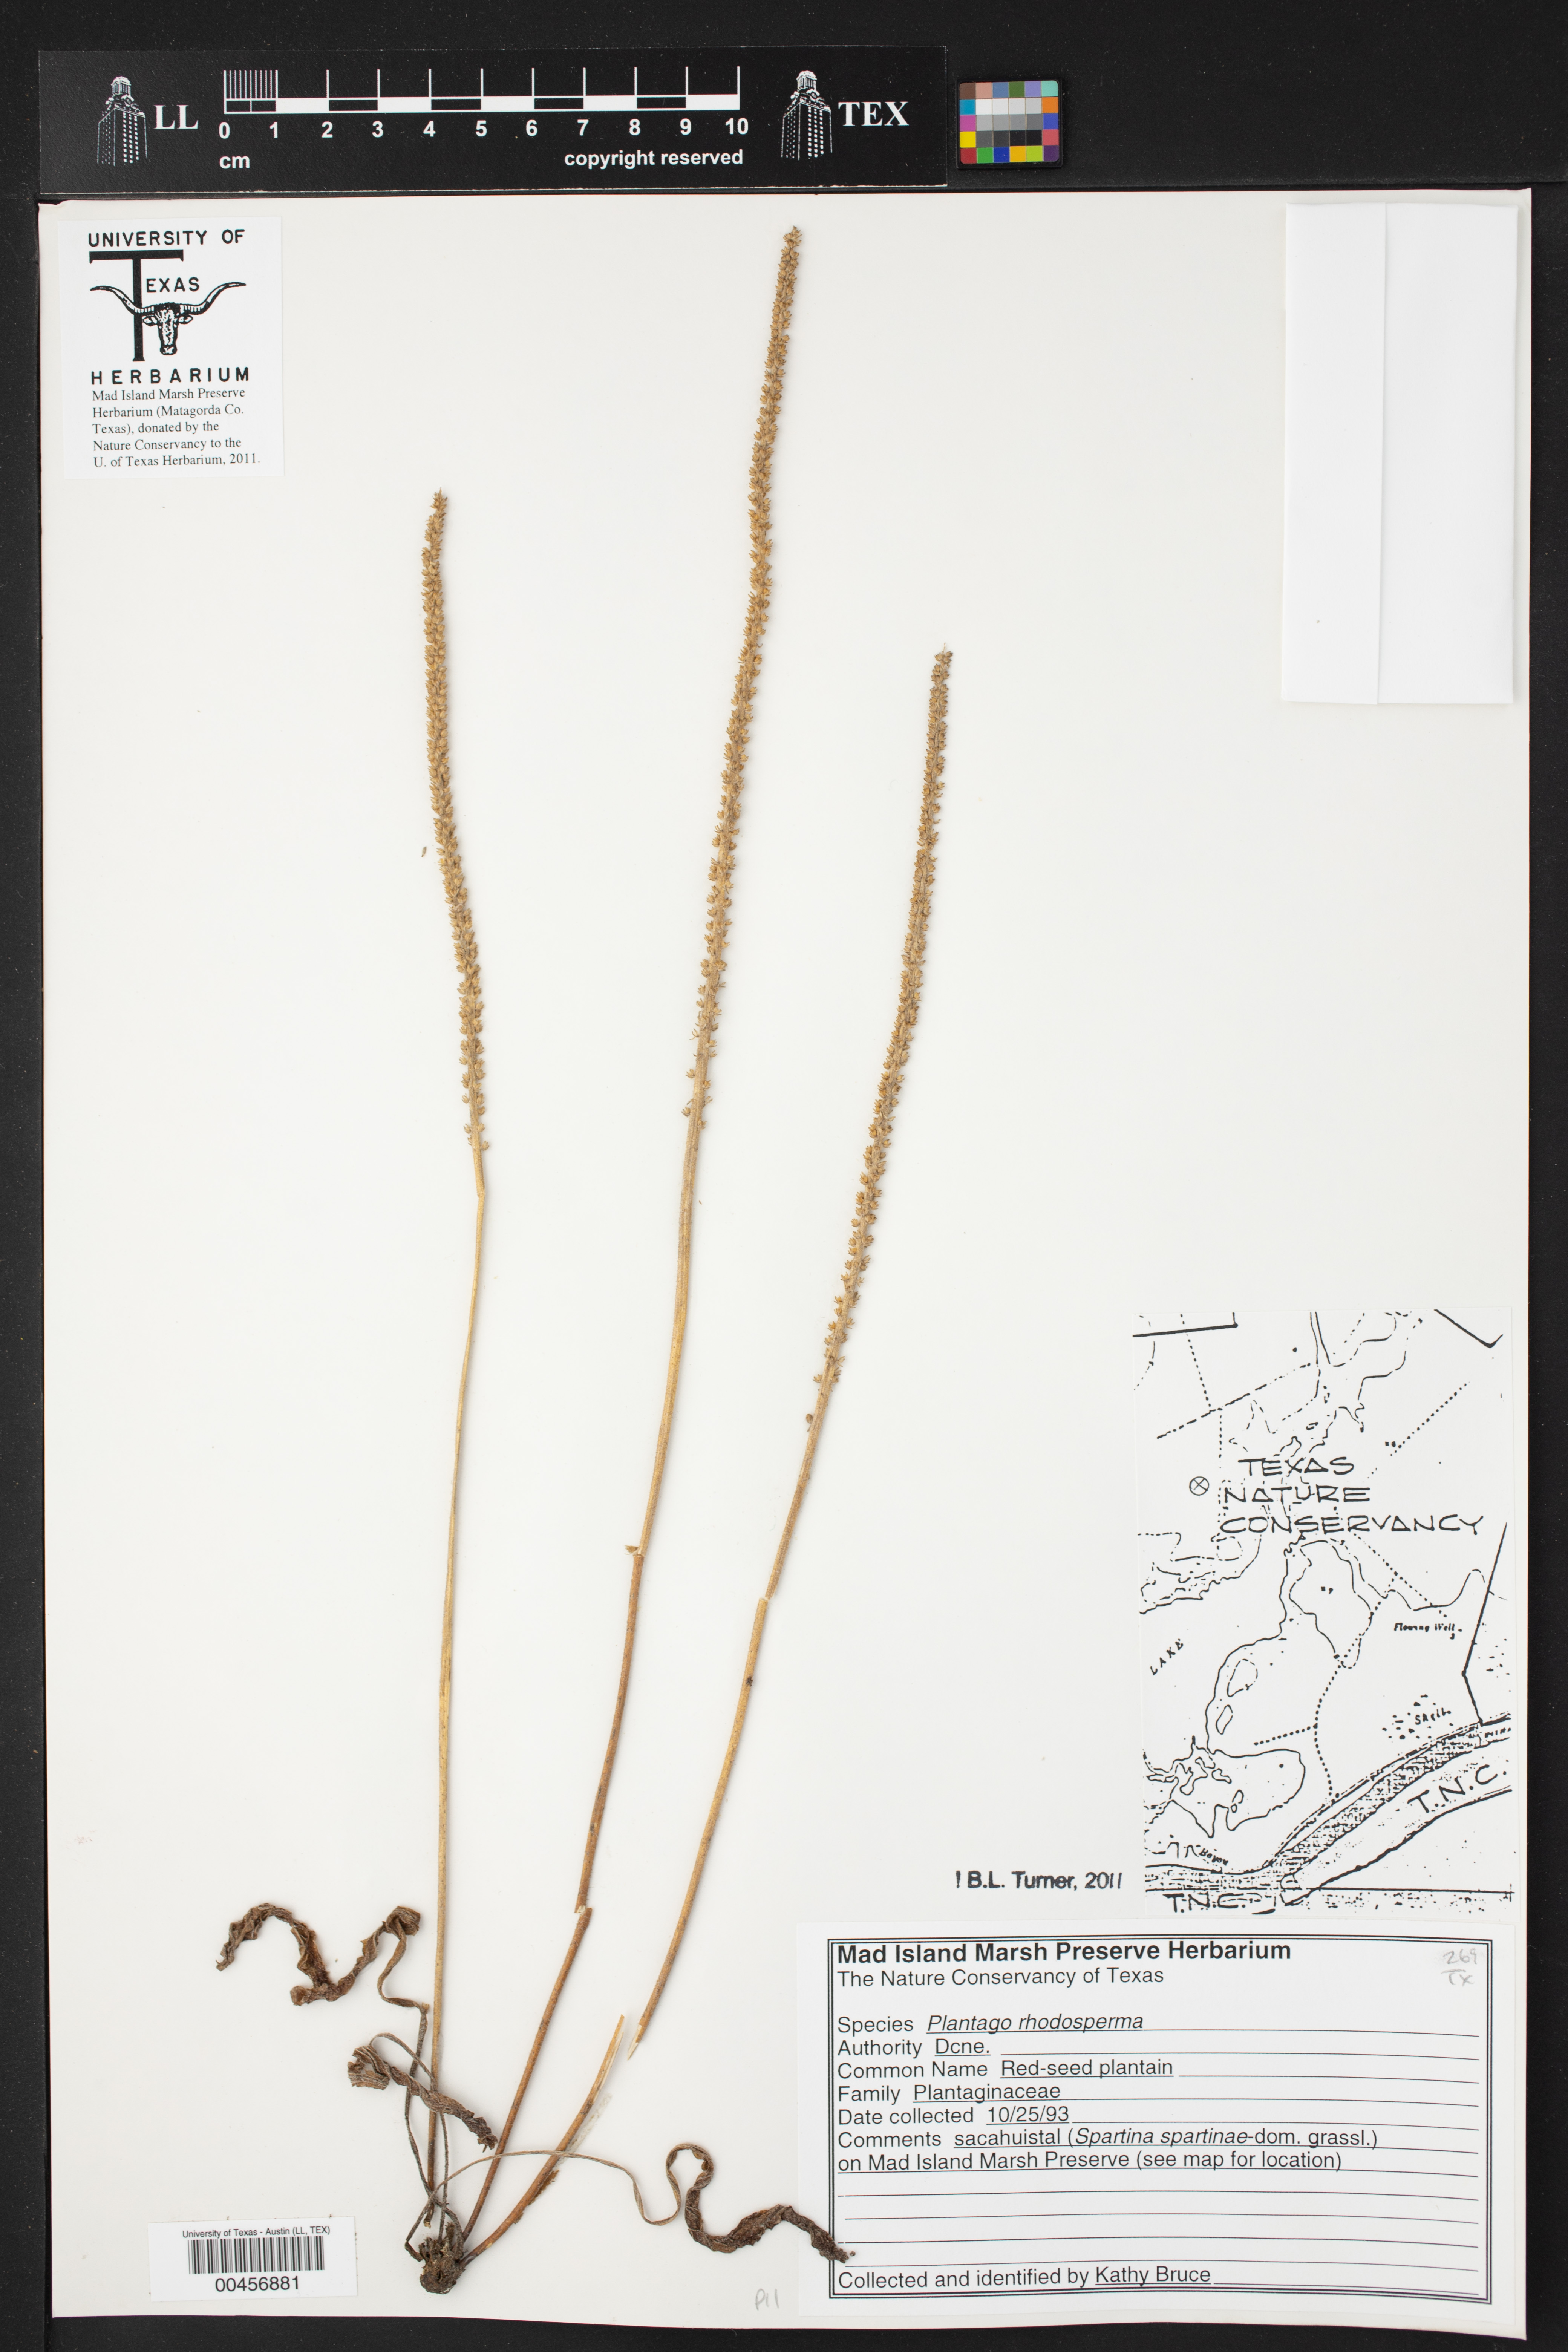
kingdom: Plantae
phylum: Tracheophyta
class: Magnoliopsida
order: Lamiales
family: Plantaginaceae
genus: Plantago
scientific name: Plantago rhodosperma
